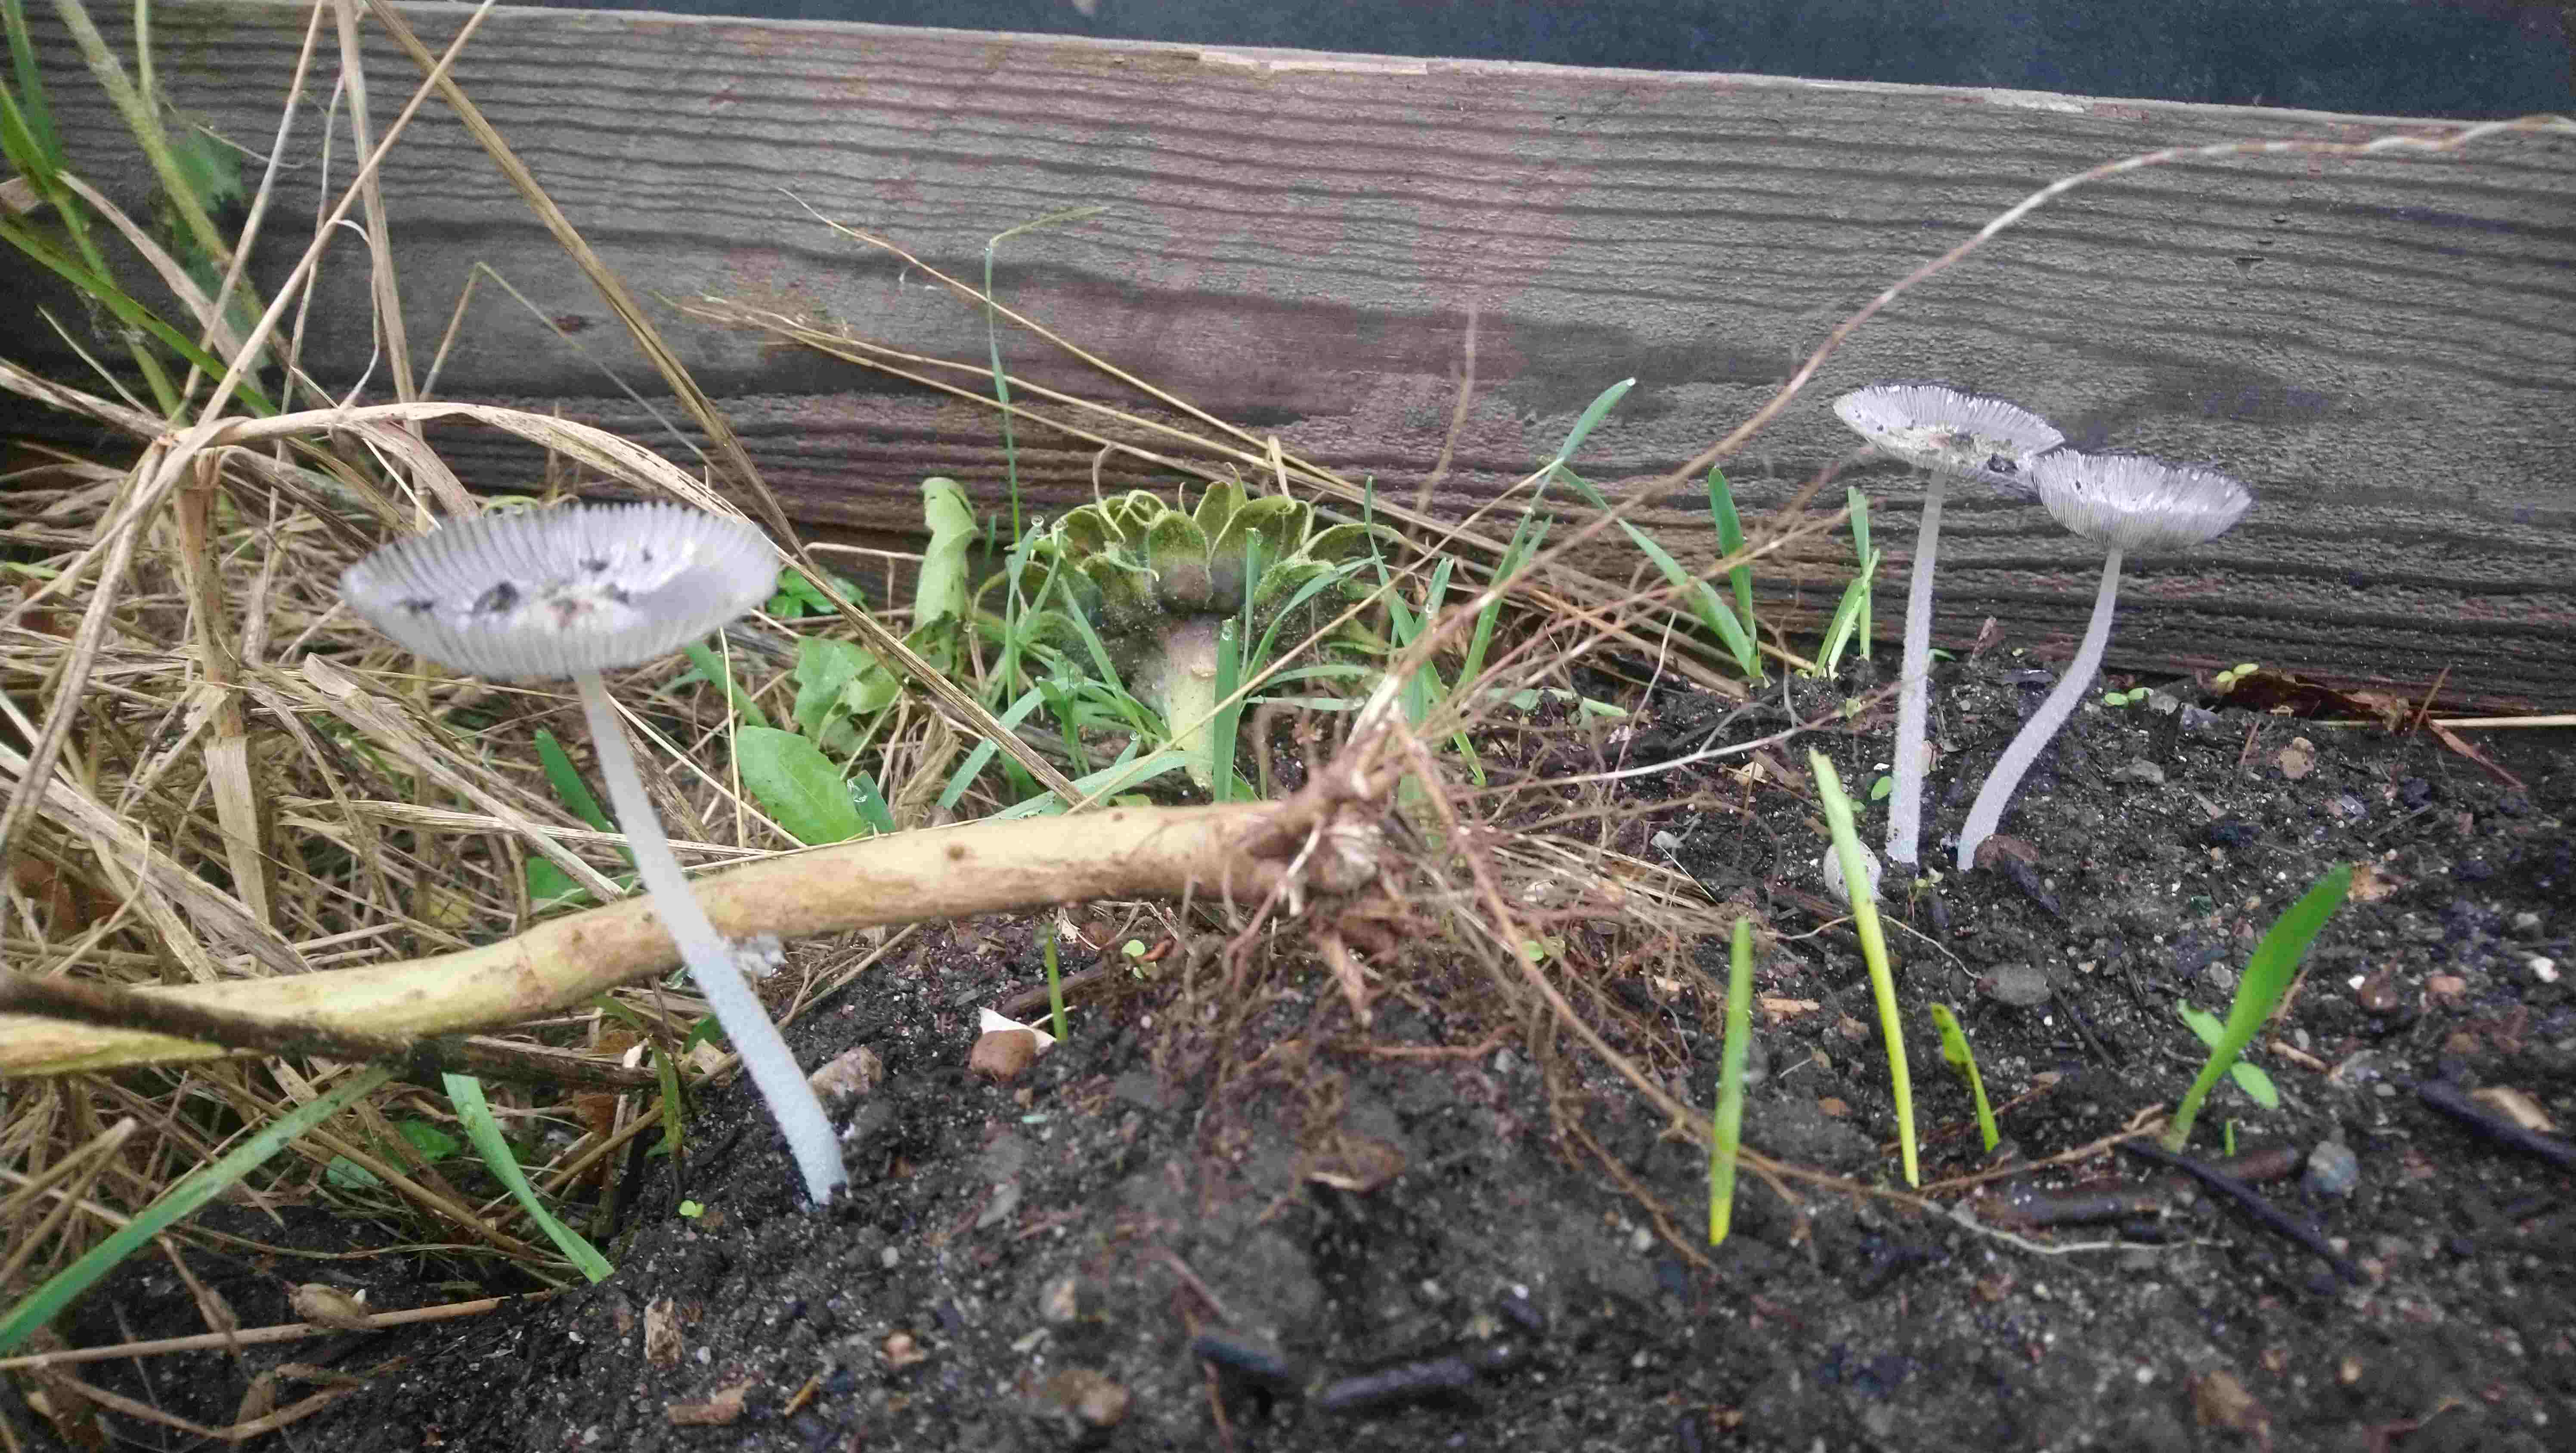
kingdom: Fungi
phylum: Basidiomycota
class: Agaricomycetes
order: Agaricales
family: Psathyrellaceae
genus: Coprinopsis
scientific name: Coprinopsis lagopus
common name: dunstokket blækhat
